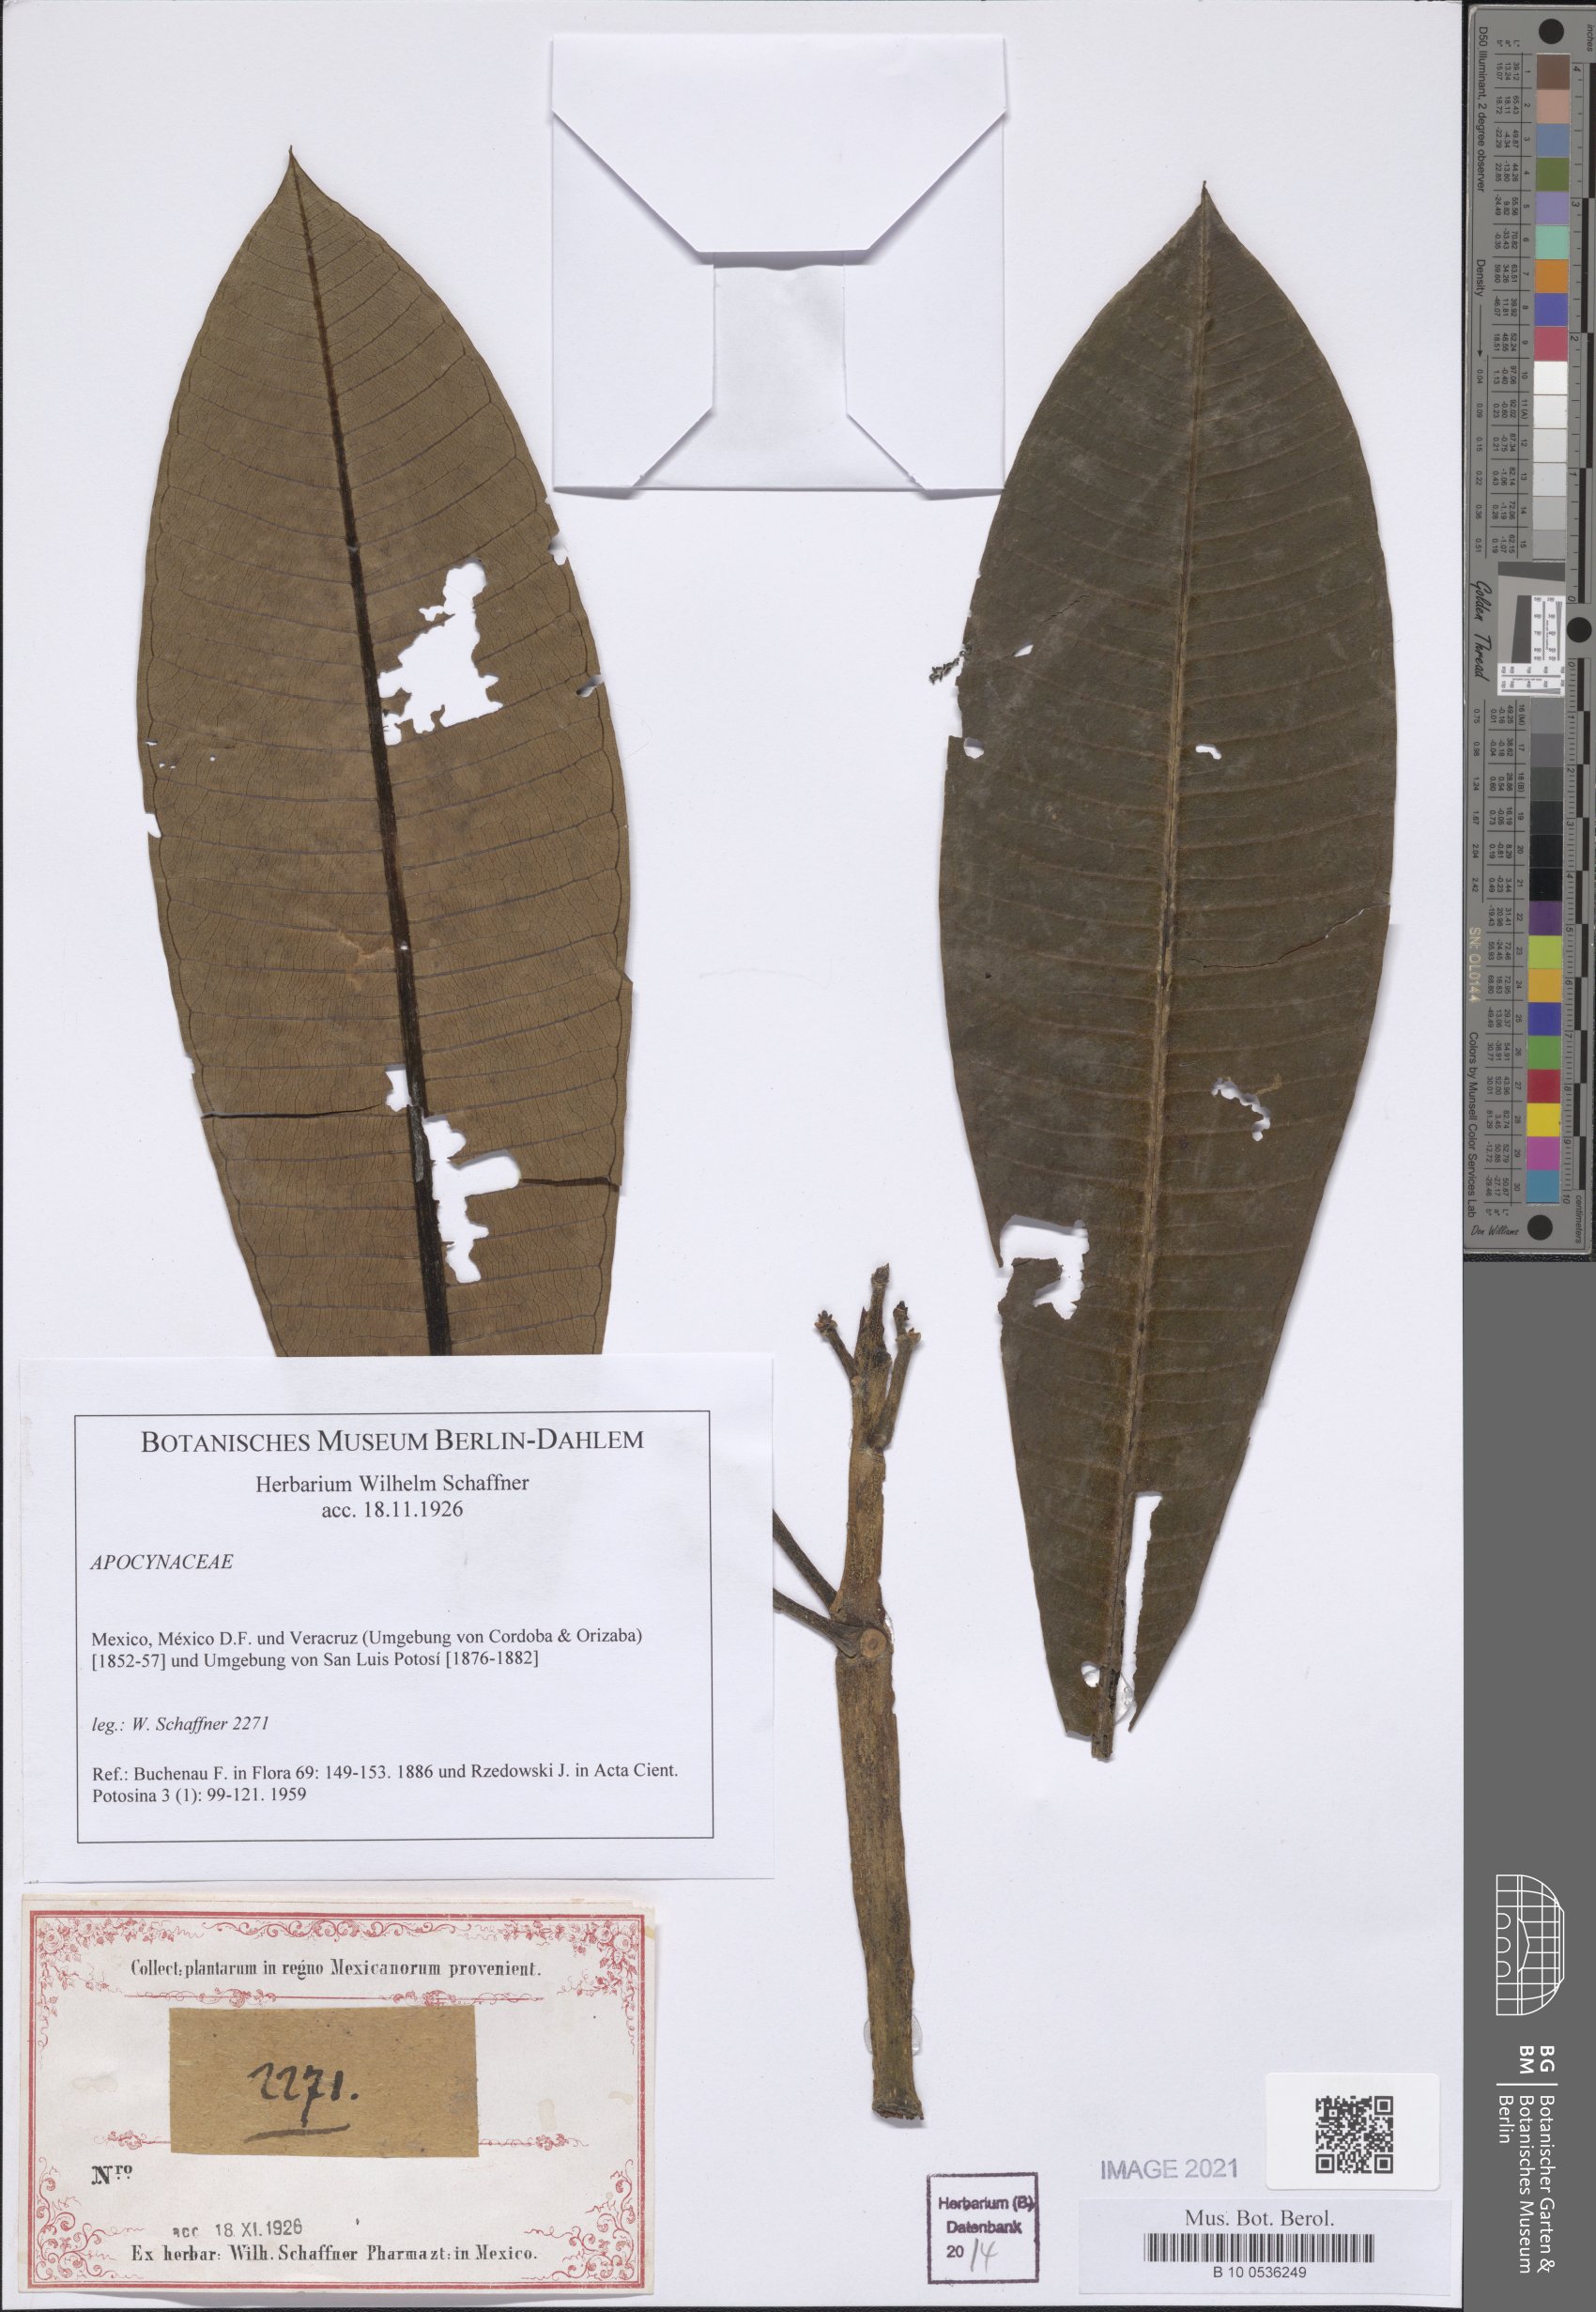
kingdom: Plantae
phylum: Tracheophyta
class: Magnoliopsida
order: Gentianales
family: Apocynaceae
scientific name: Apocynaceae
